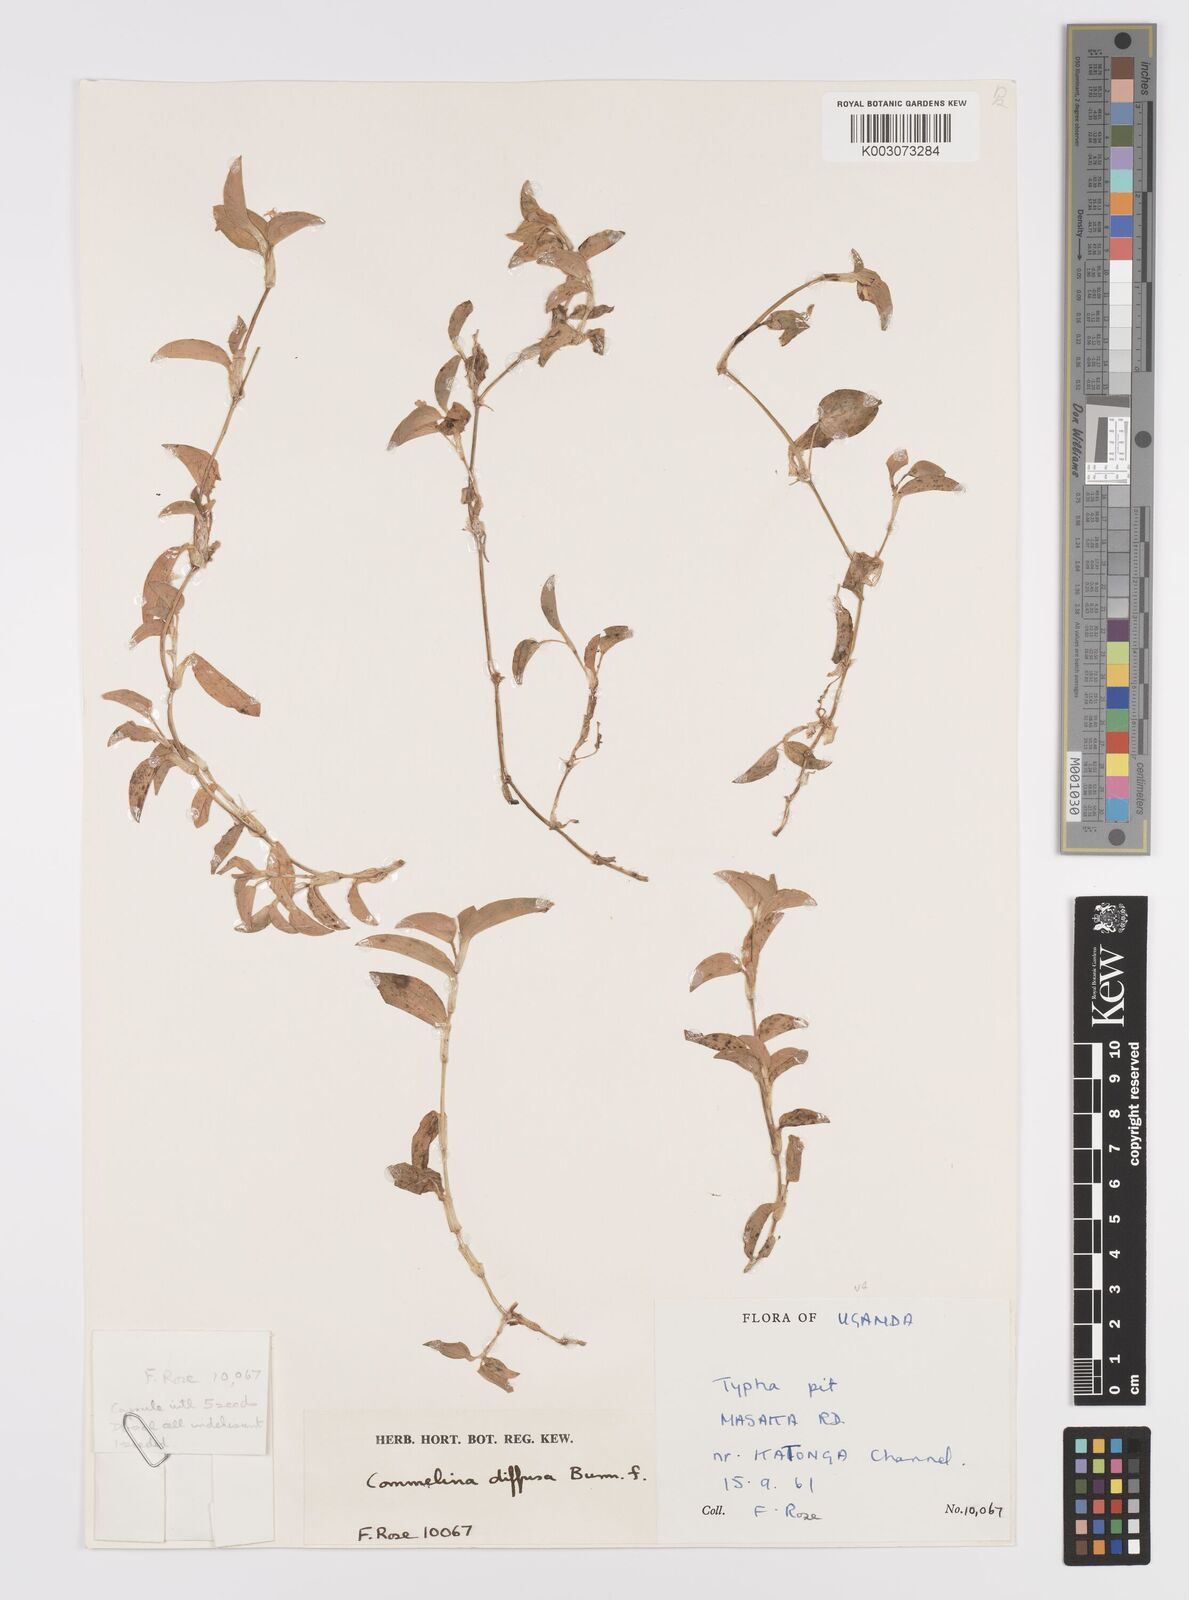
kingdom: Plantae
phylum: Tracheophyta
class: Liliopsida
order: Commelinales
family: Commelinaceae
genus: Commelina
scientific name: Commelina africana
